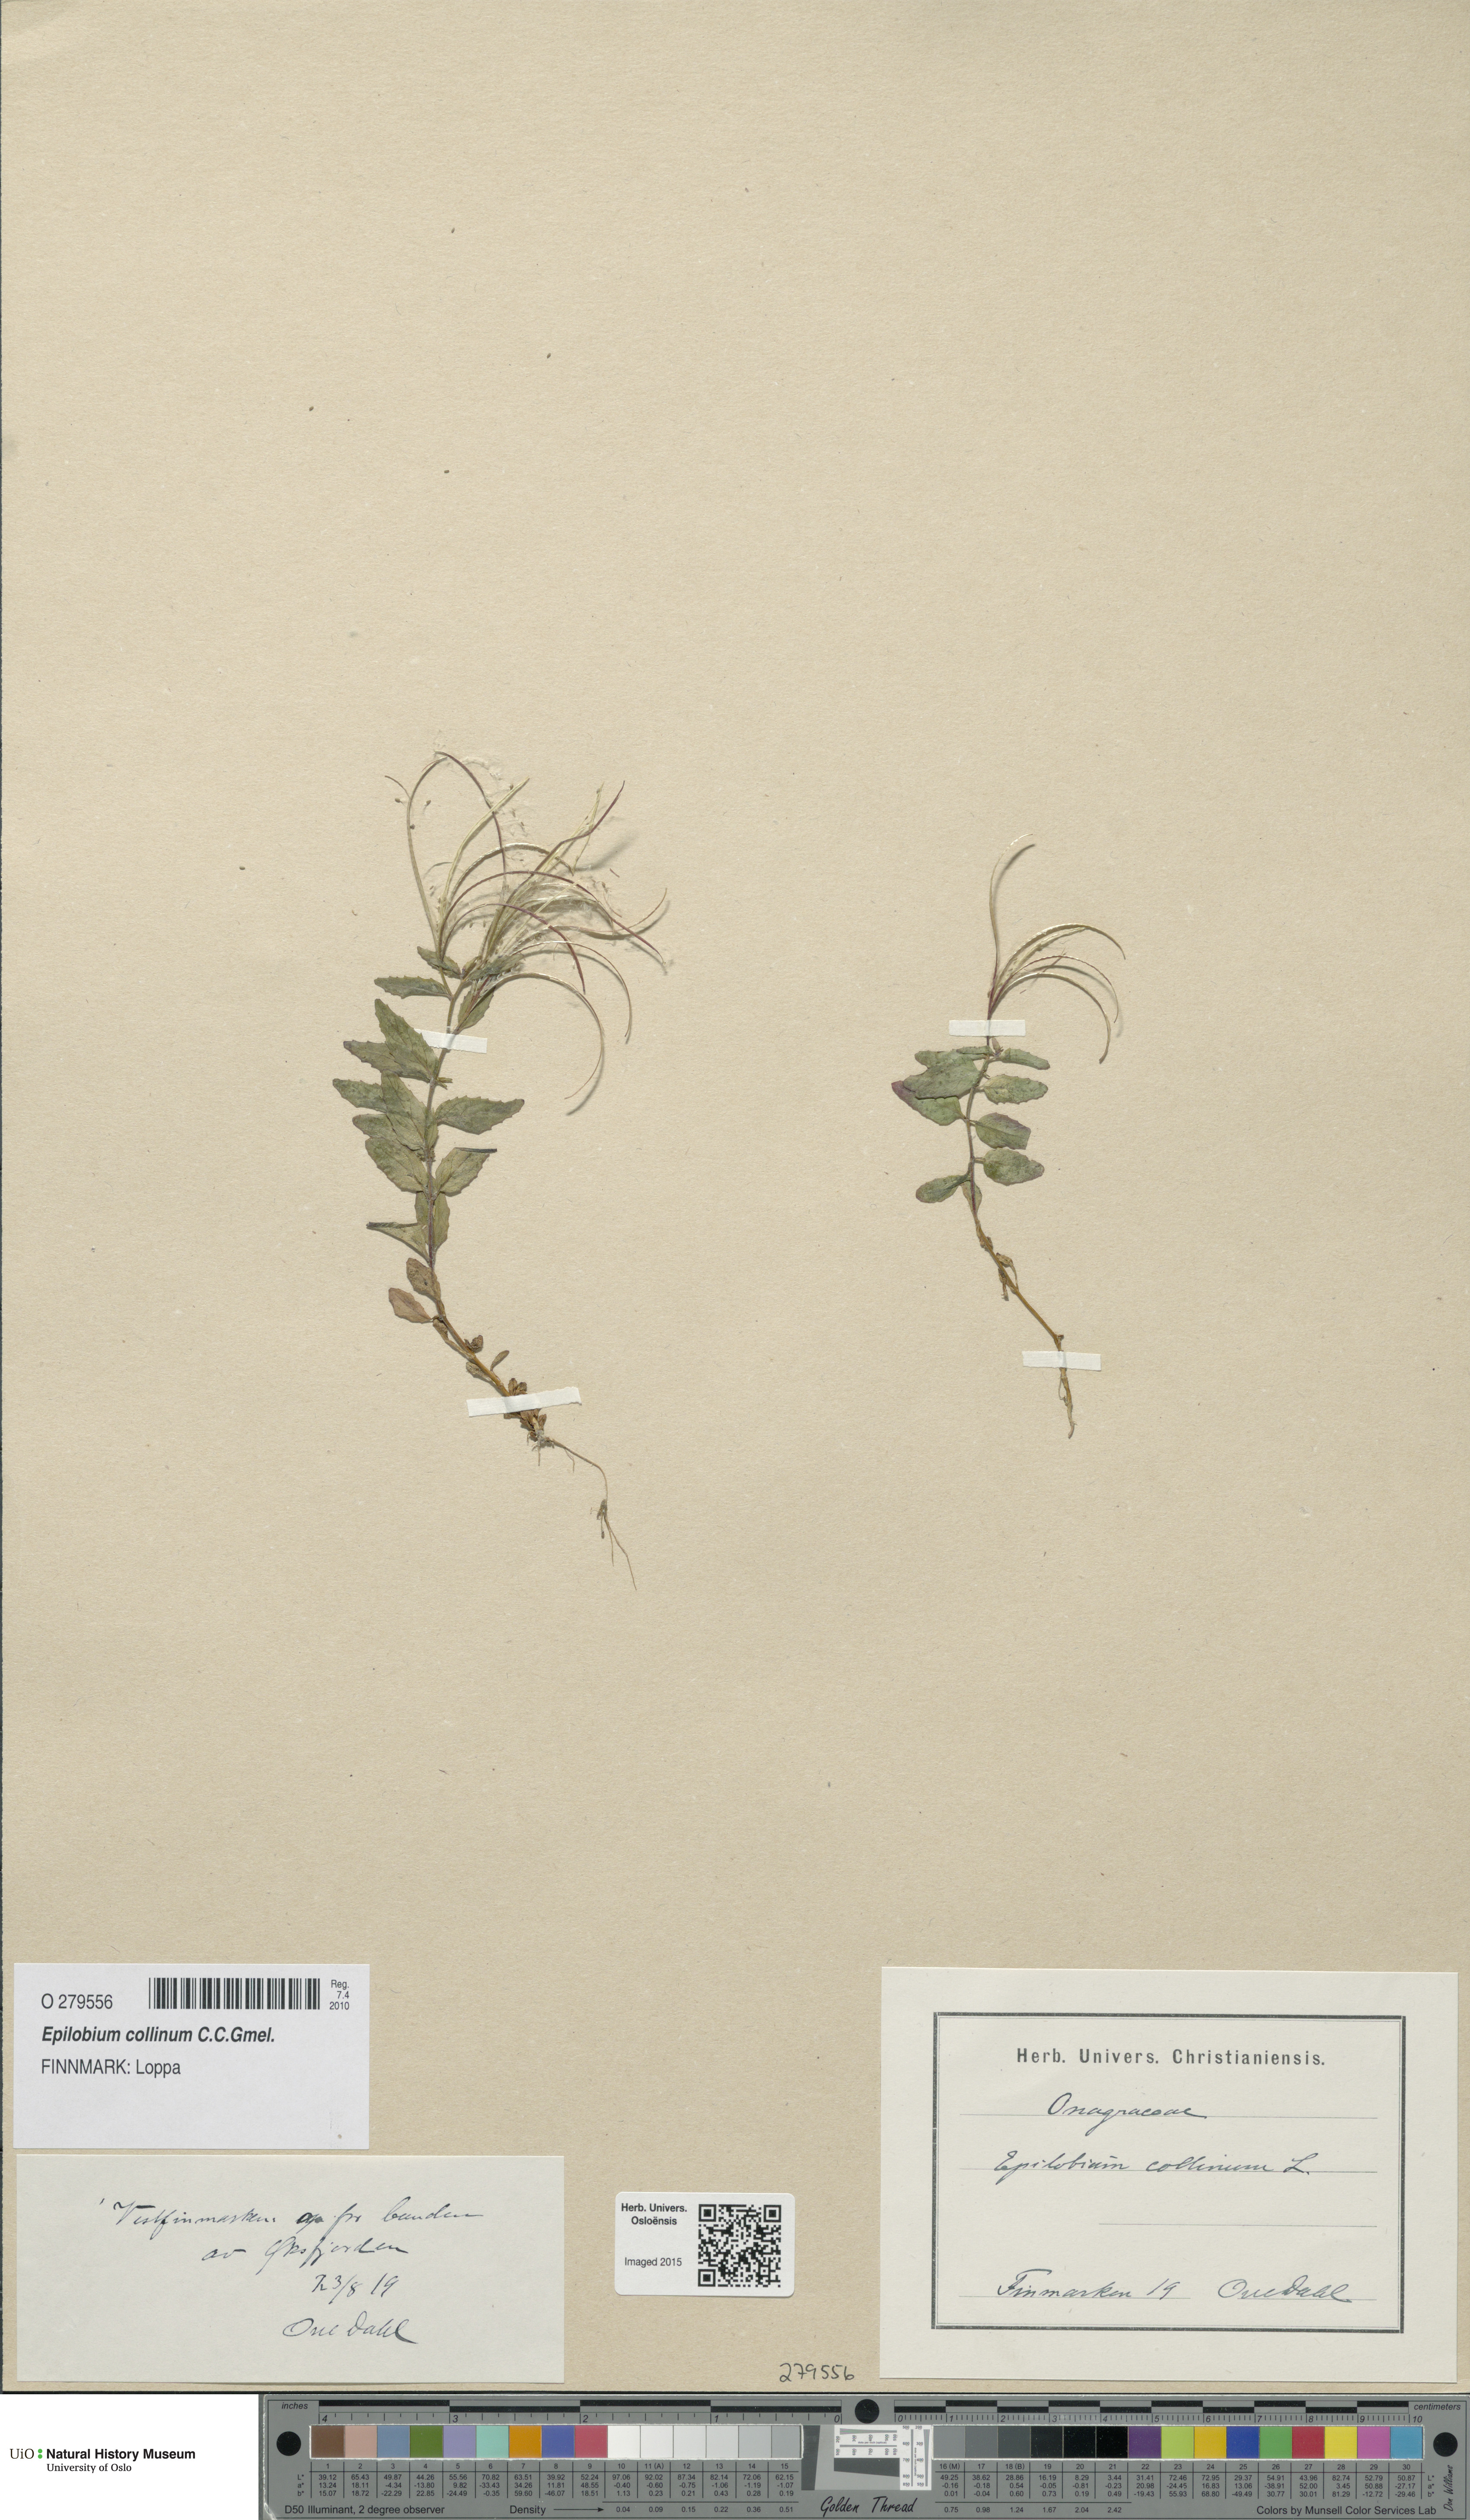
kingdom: Plantae
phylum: Tracheophyta
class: Magnoliopsida
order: Myrtales
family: Onagraceae
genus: Epilobium
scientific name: Epilobium collinum
